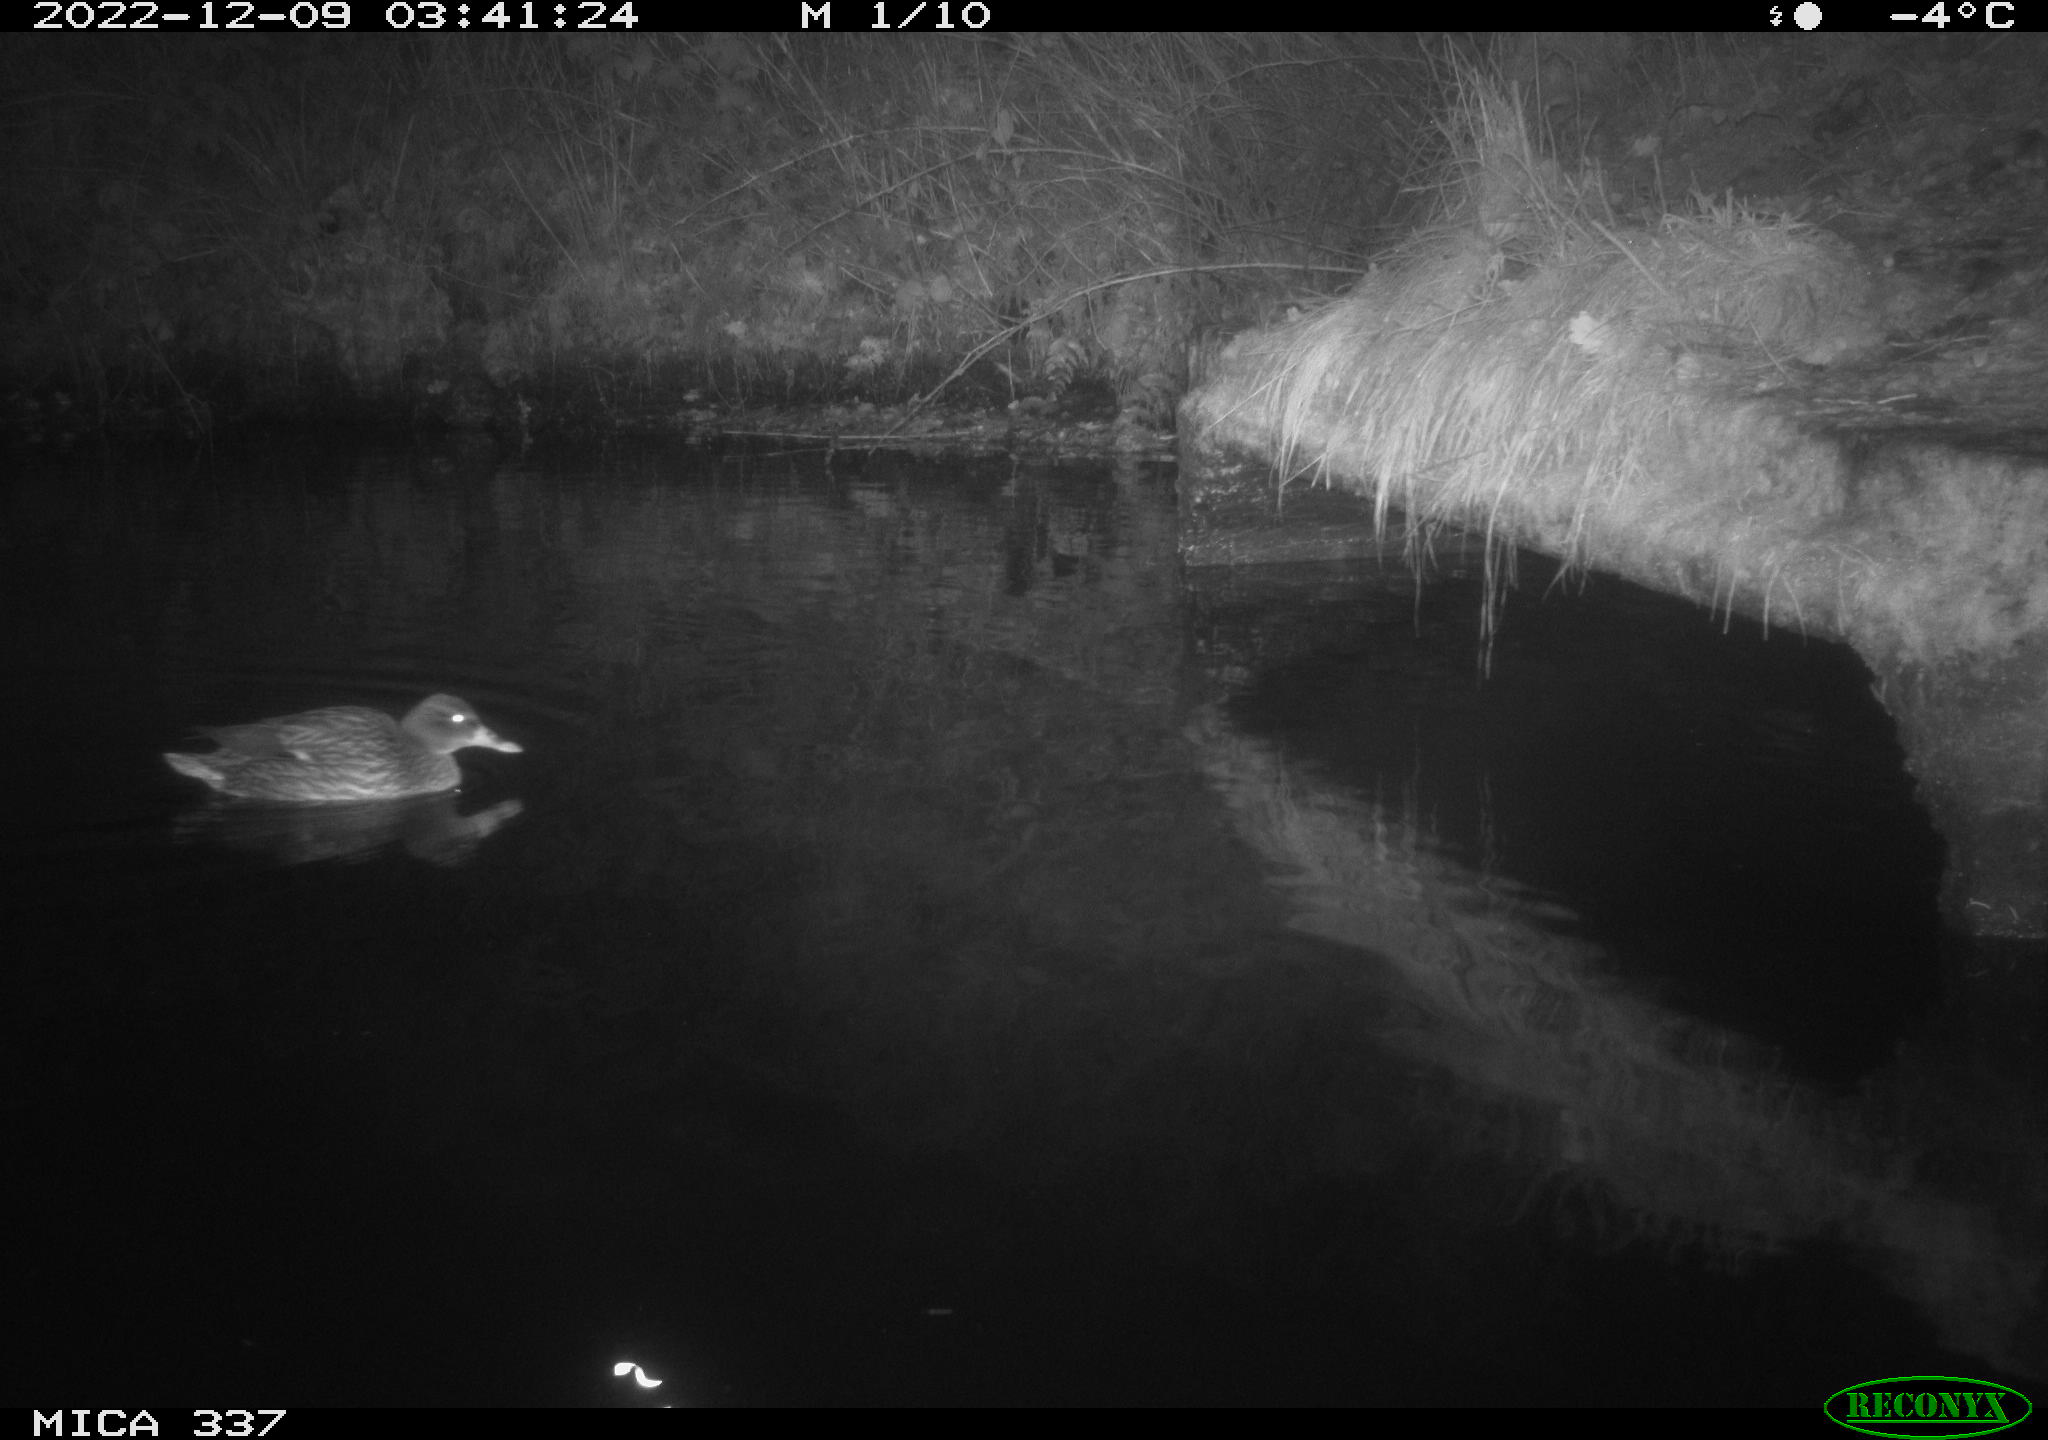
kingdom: Animalia
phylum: Chordata
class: Aves
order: Anseriformes
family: Anatidae
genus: Anas
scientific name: Anas
